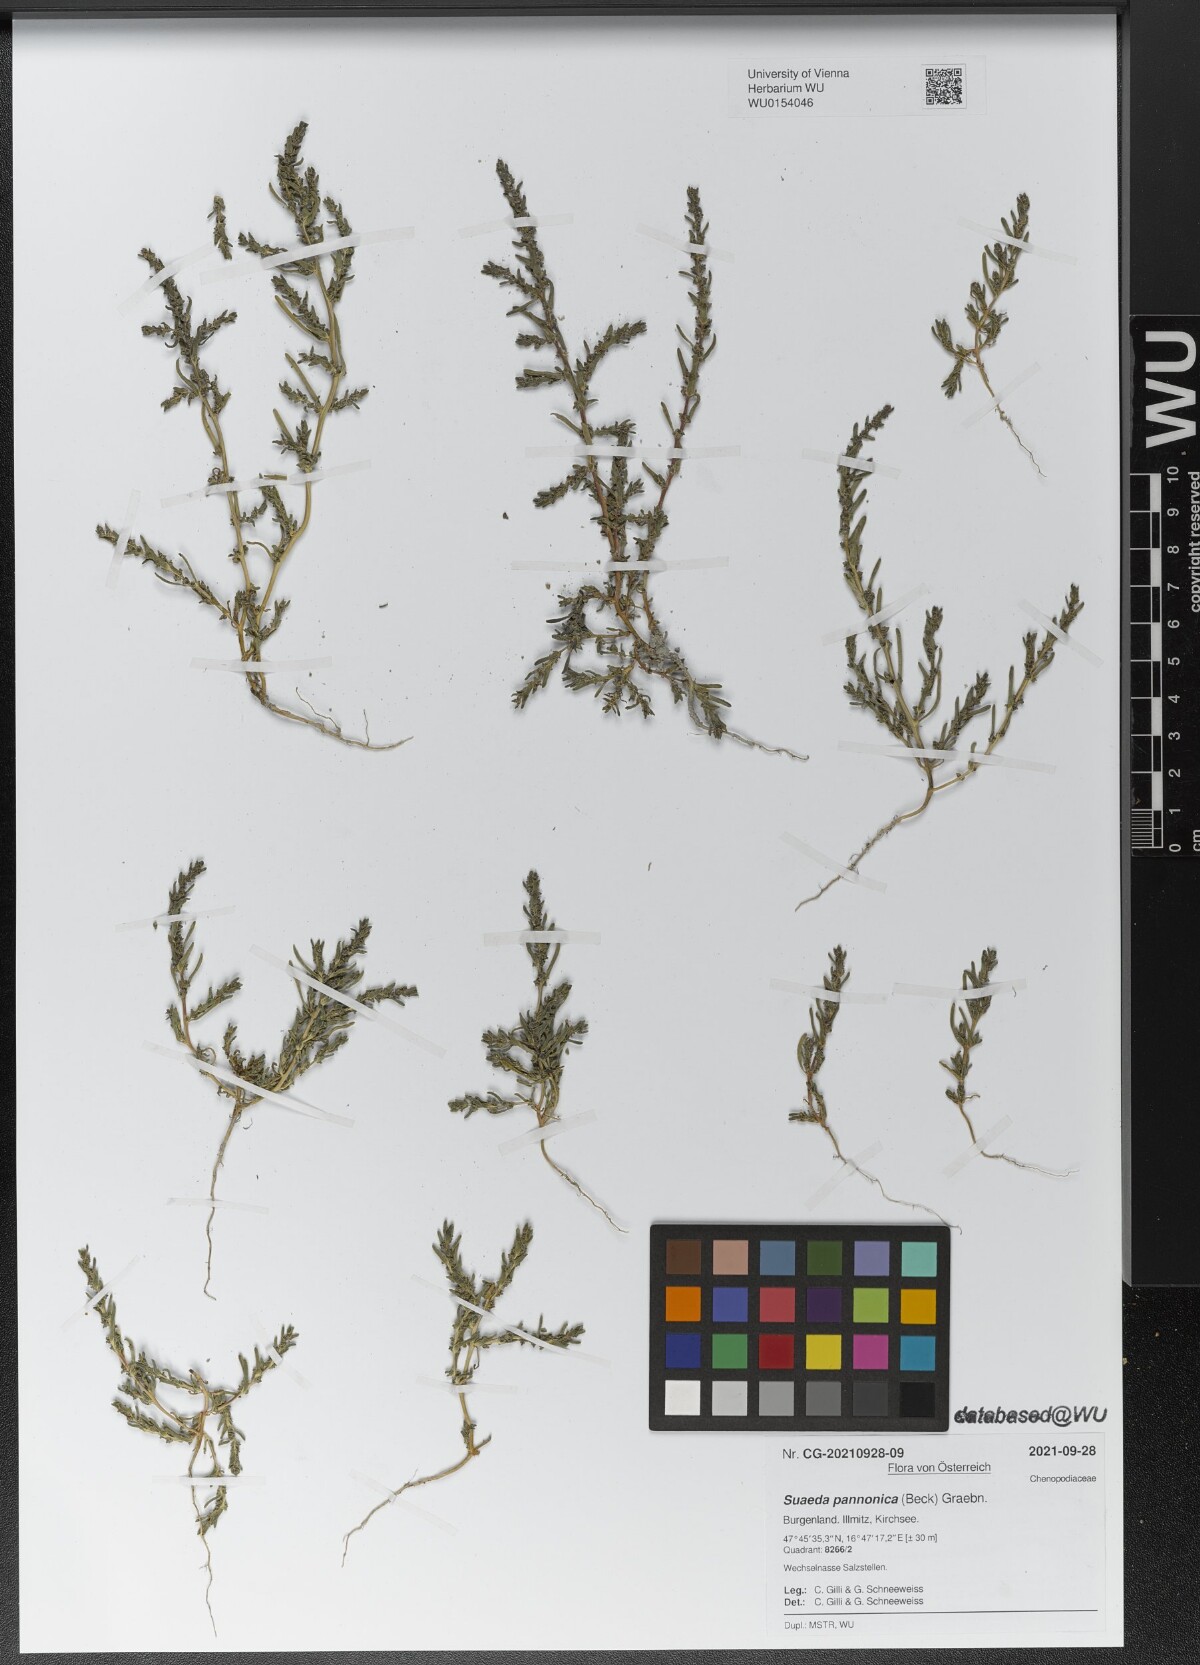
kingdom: Plantae
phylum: Tracheophyta
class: Magnoliopsida
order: Caryophyllales
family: Amaranthaceae
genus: Suaeda
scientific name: Suaeda pannonica
